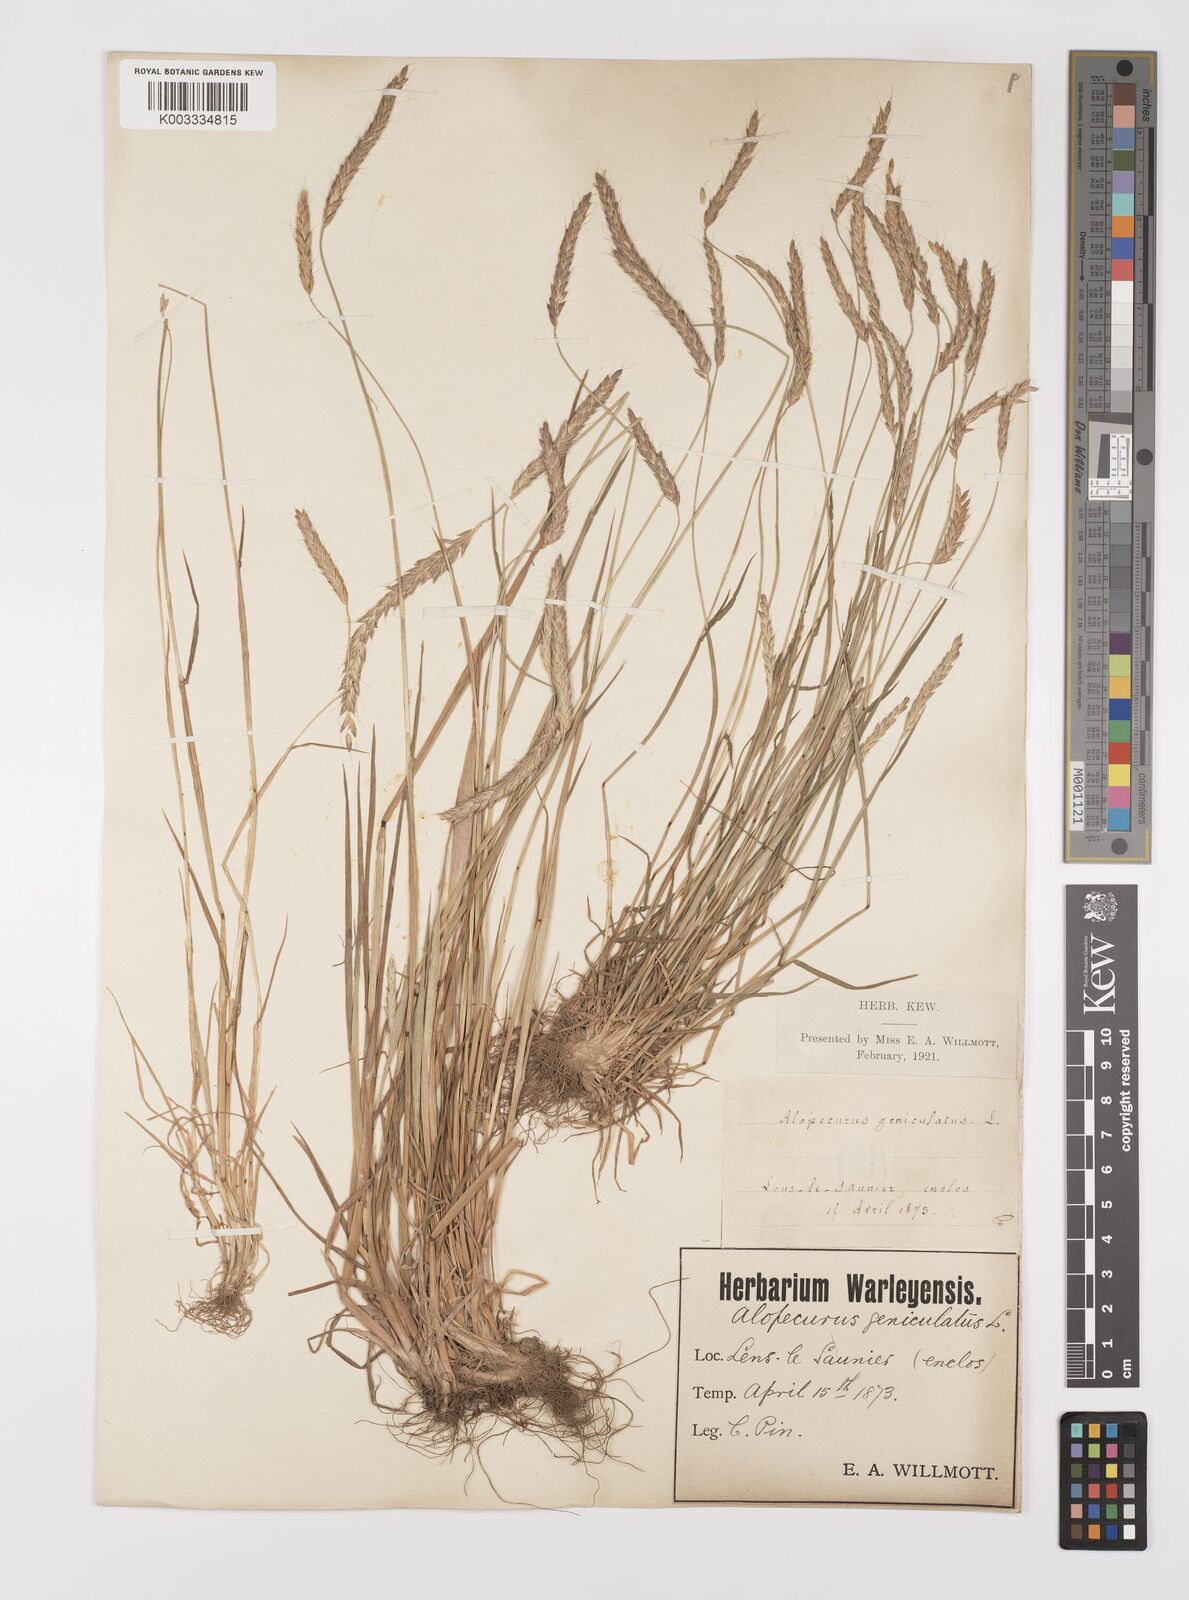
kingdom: Plantae
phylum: Tracheophyta
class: Liliopsida
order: Poales
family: Poaceae
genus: Alopecurus
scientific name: Alopecurus myosuroides
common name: Black-grass
